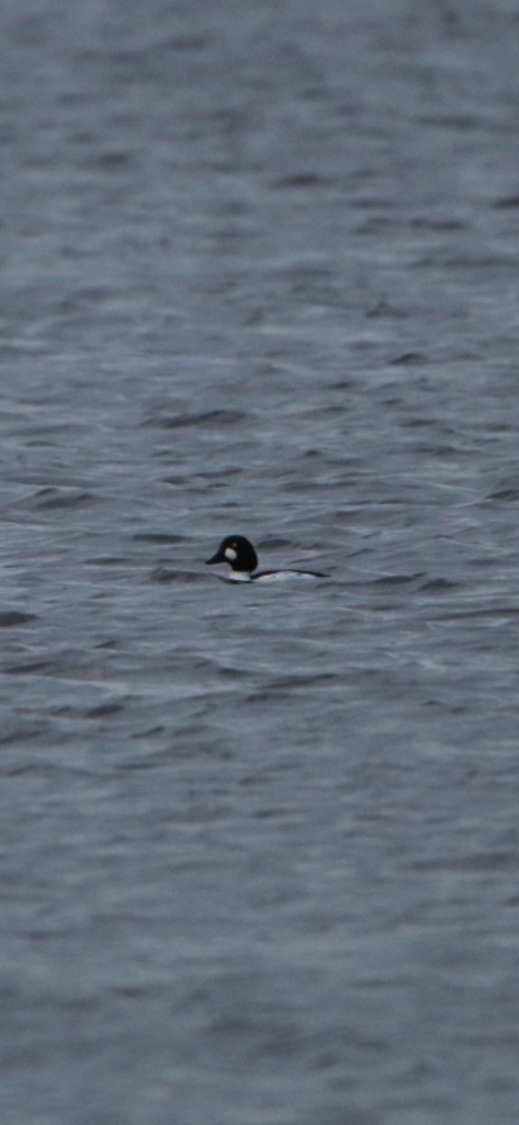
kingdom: Animalia
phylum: Chordata
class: Aves
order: Anseriformes
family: Anatidae
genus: Bucephala
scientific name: Bucephala clangula
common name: Hvinand
